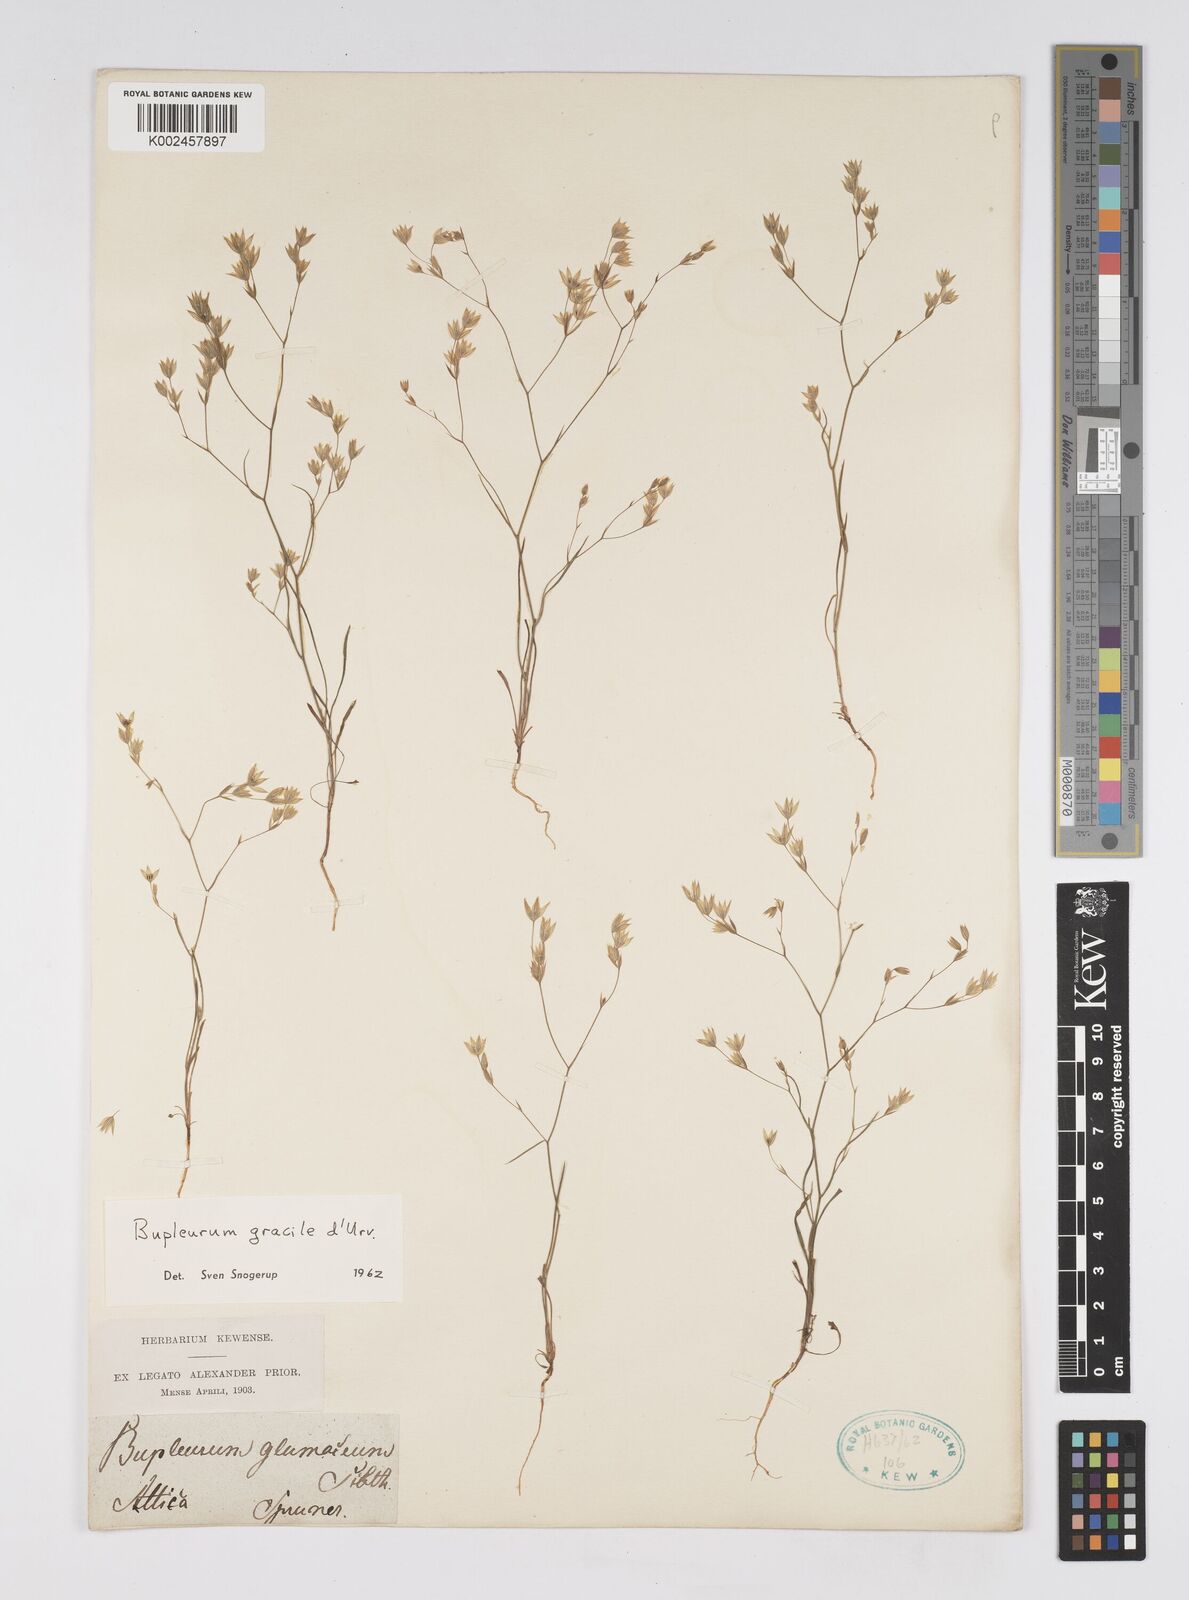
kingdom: Plantae
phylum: Tracheophyta
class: Magnoliopsida
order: Apiales
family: Apiaceae
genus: Bupleurum
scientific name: Bupleurum gracile
